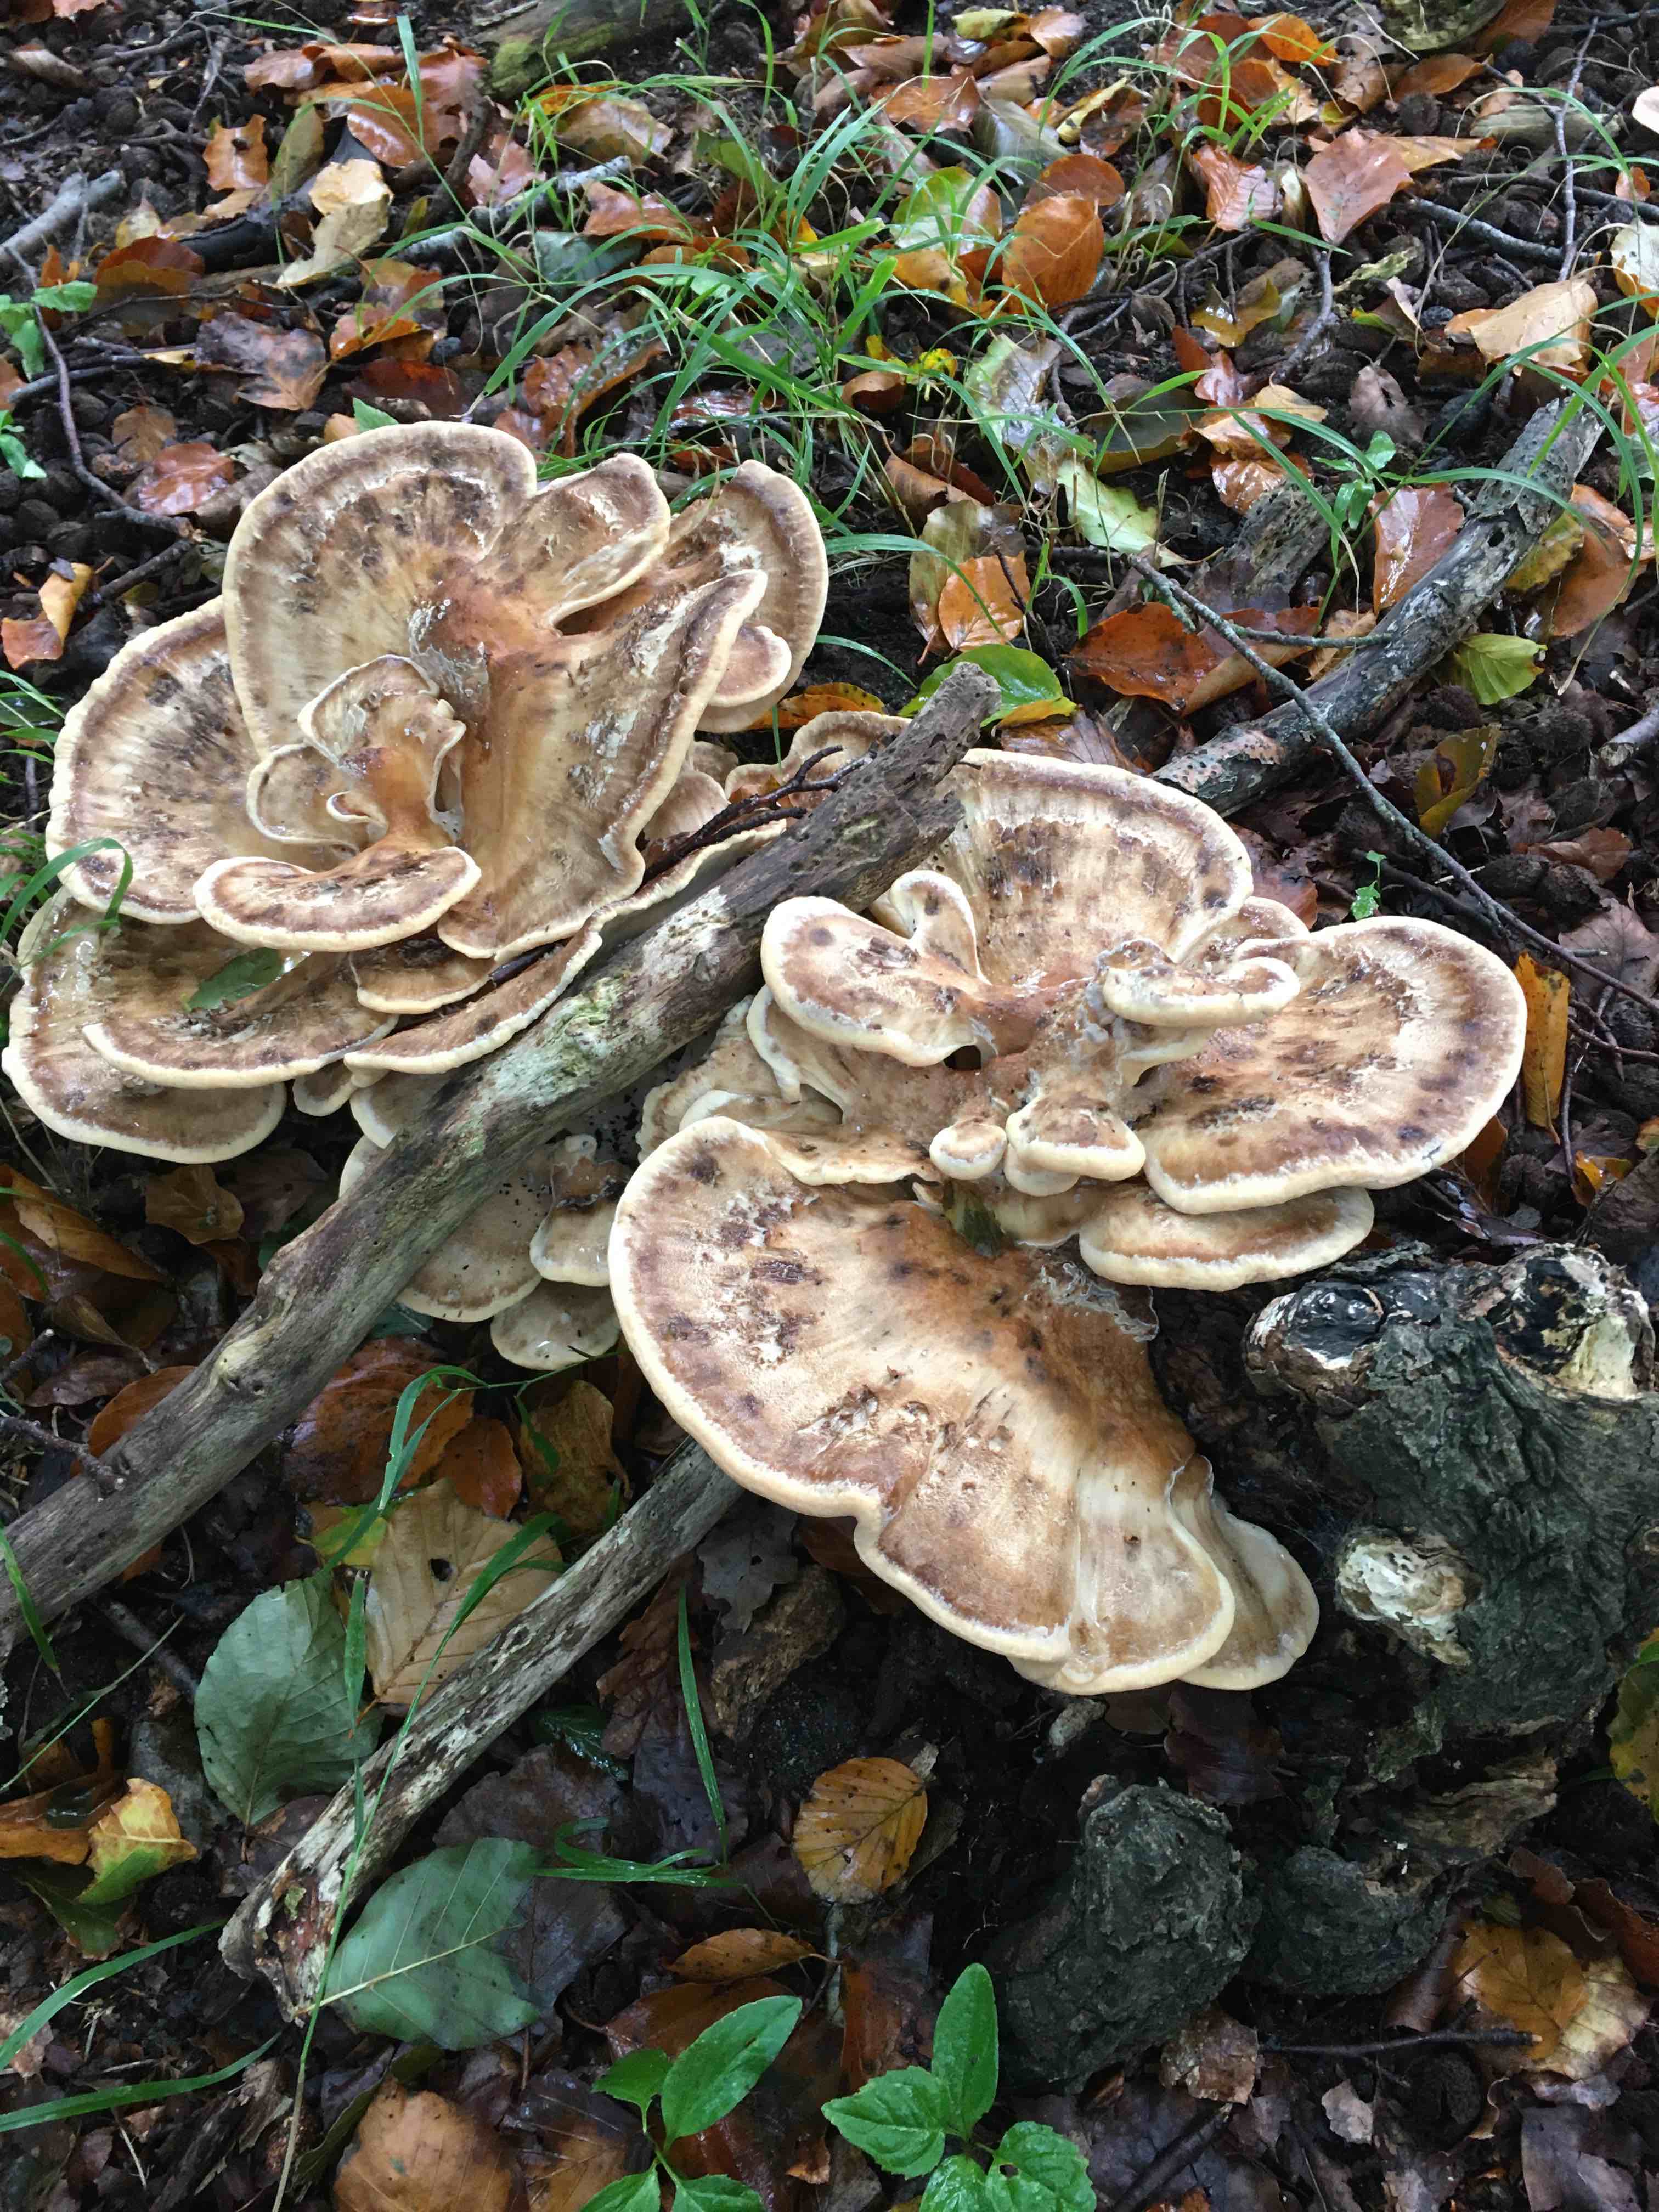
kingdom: Fungi
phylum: Basidiomycota
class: Agaricomycetes
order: Polyporales
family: Meripilaceae
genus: Meripilus
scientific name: Meripilus giganteus
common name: kæmpeporesvamp
